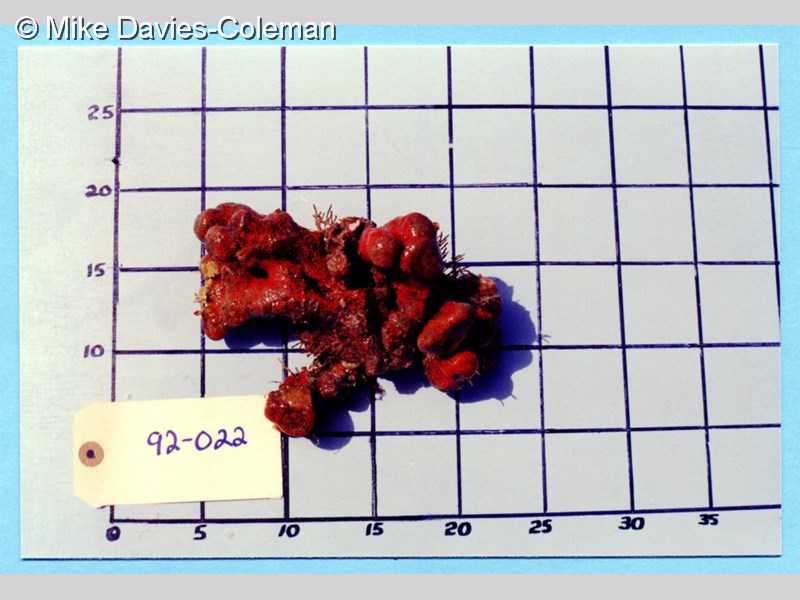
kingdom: Animalia
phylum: Chordata
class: Ascidiacea
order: Aplousobranchia
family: Clavelinidae
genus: Pycnoclavella
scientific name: Pycnoclavella inflorescens
